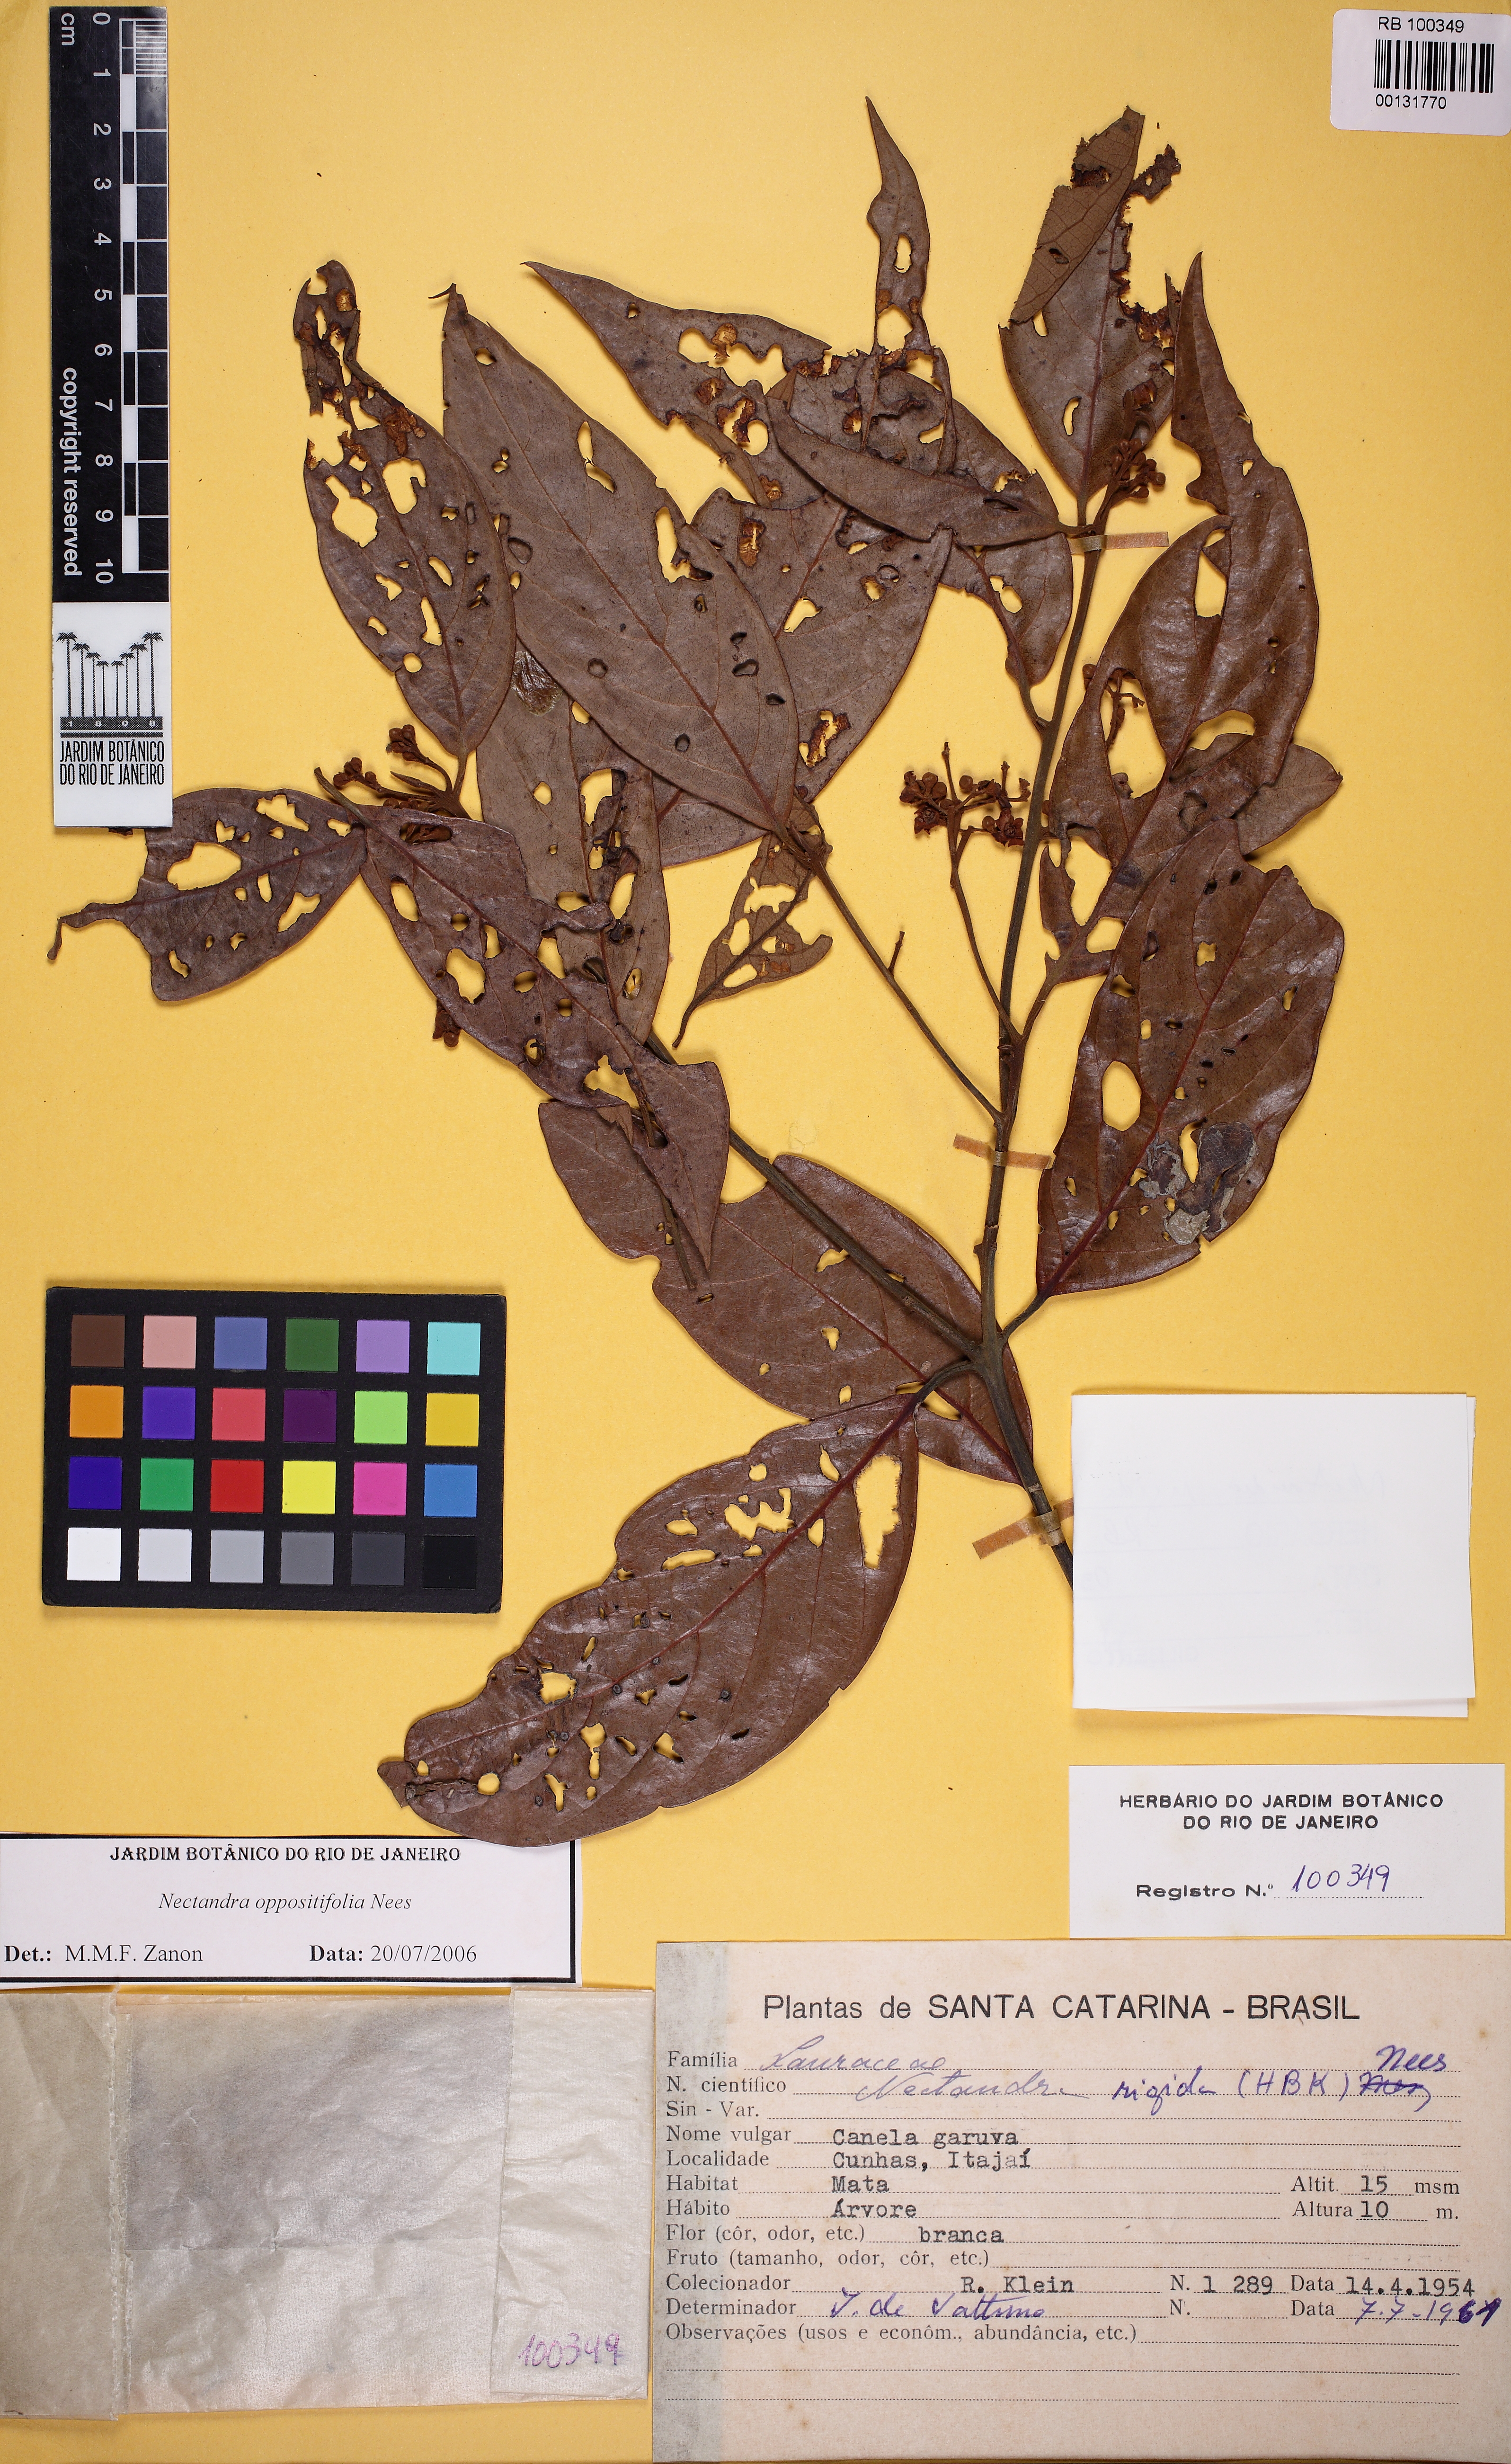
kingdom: Plantae
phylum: Tracheophyta
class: Magnoliopsida
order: Laurales
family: Lauraceae
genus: Nectandra
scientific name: Nectandra oppositifolia
